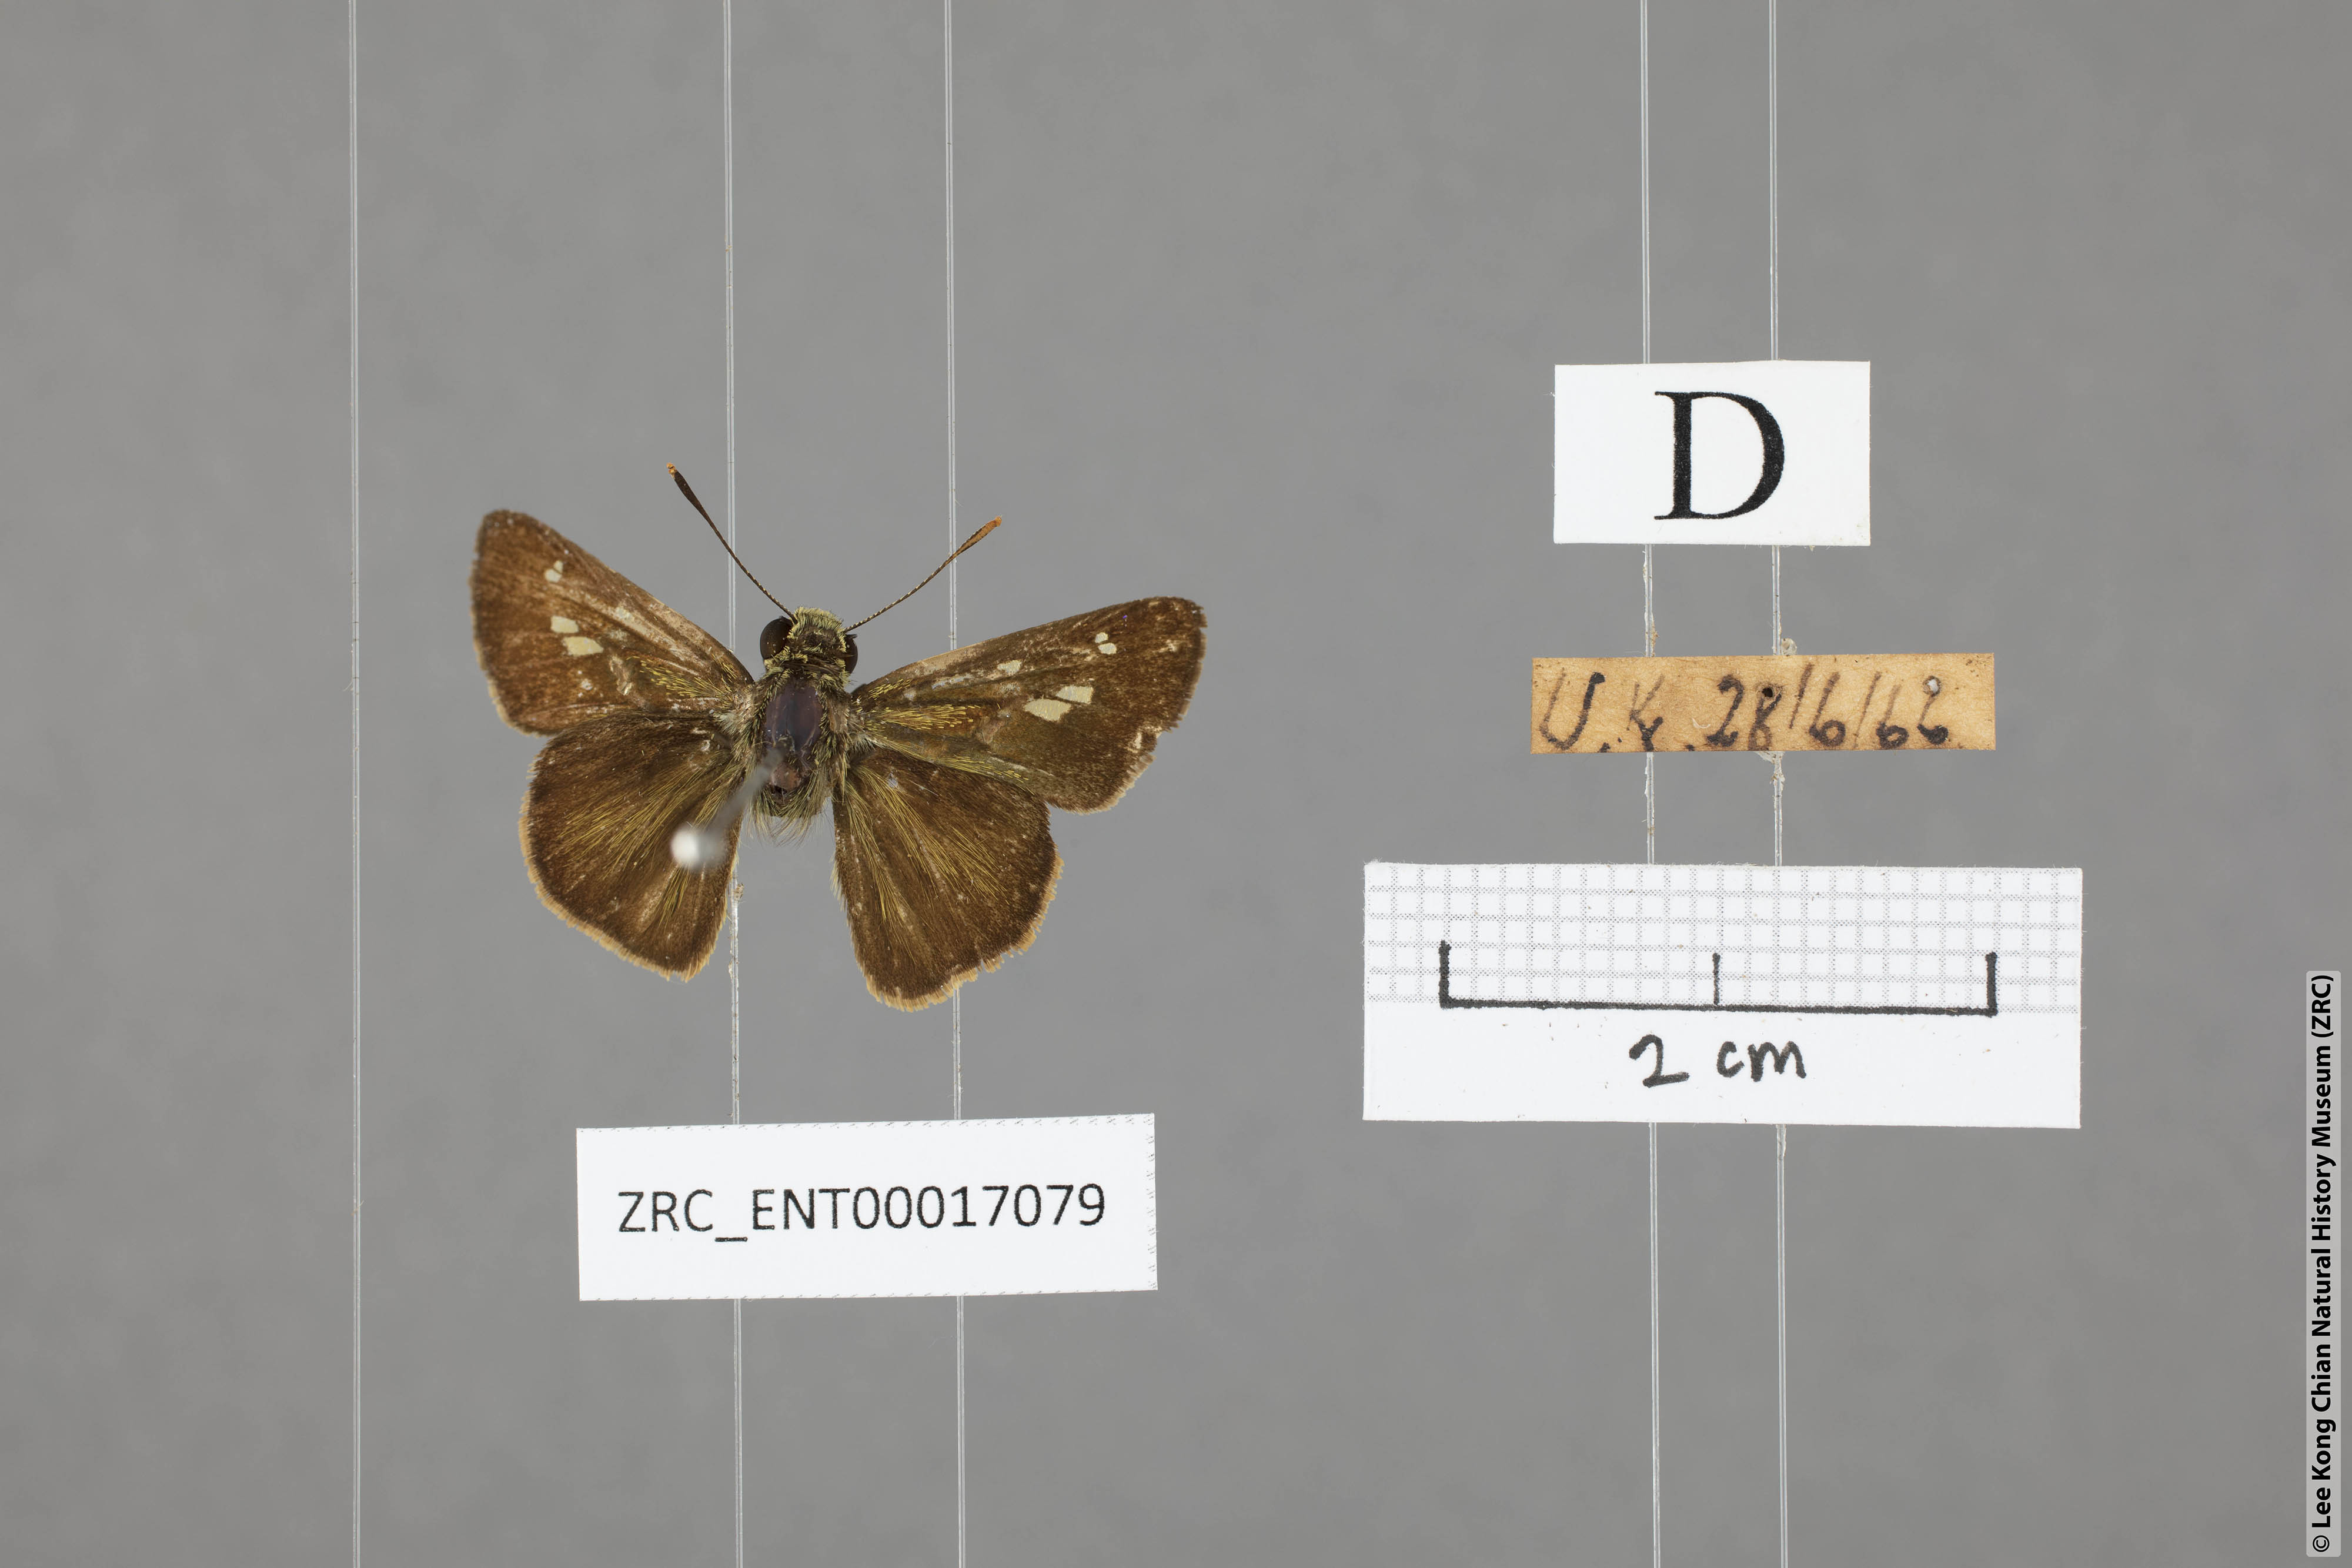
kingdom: Animalia
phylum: Arthropoda
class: Insecta
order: Lepidoptera
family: Hesperiidae
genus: Halpe
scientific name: Halpe veluvana
